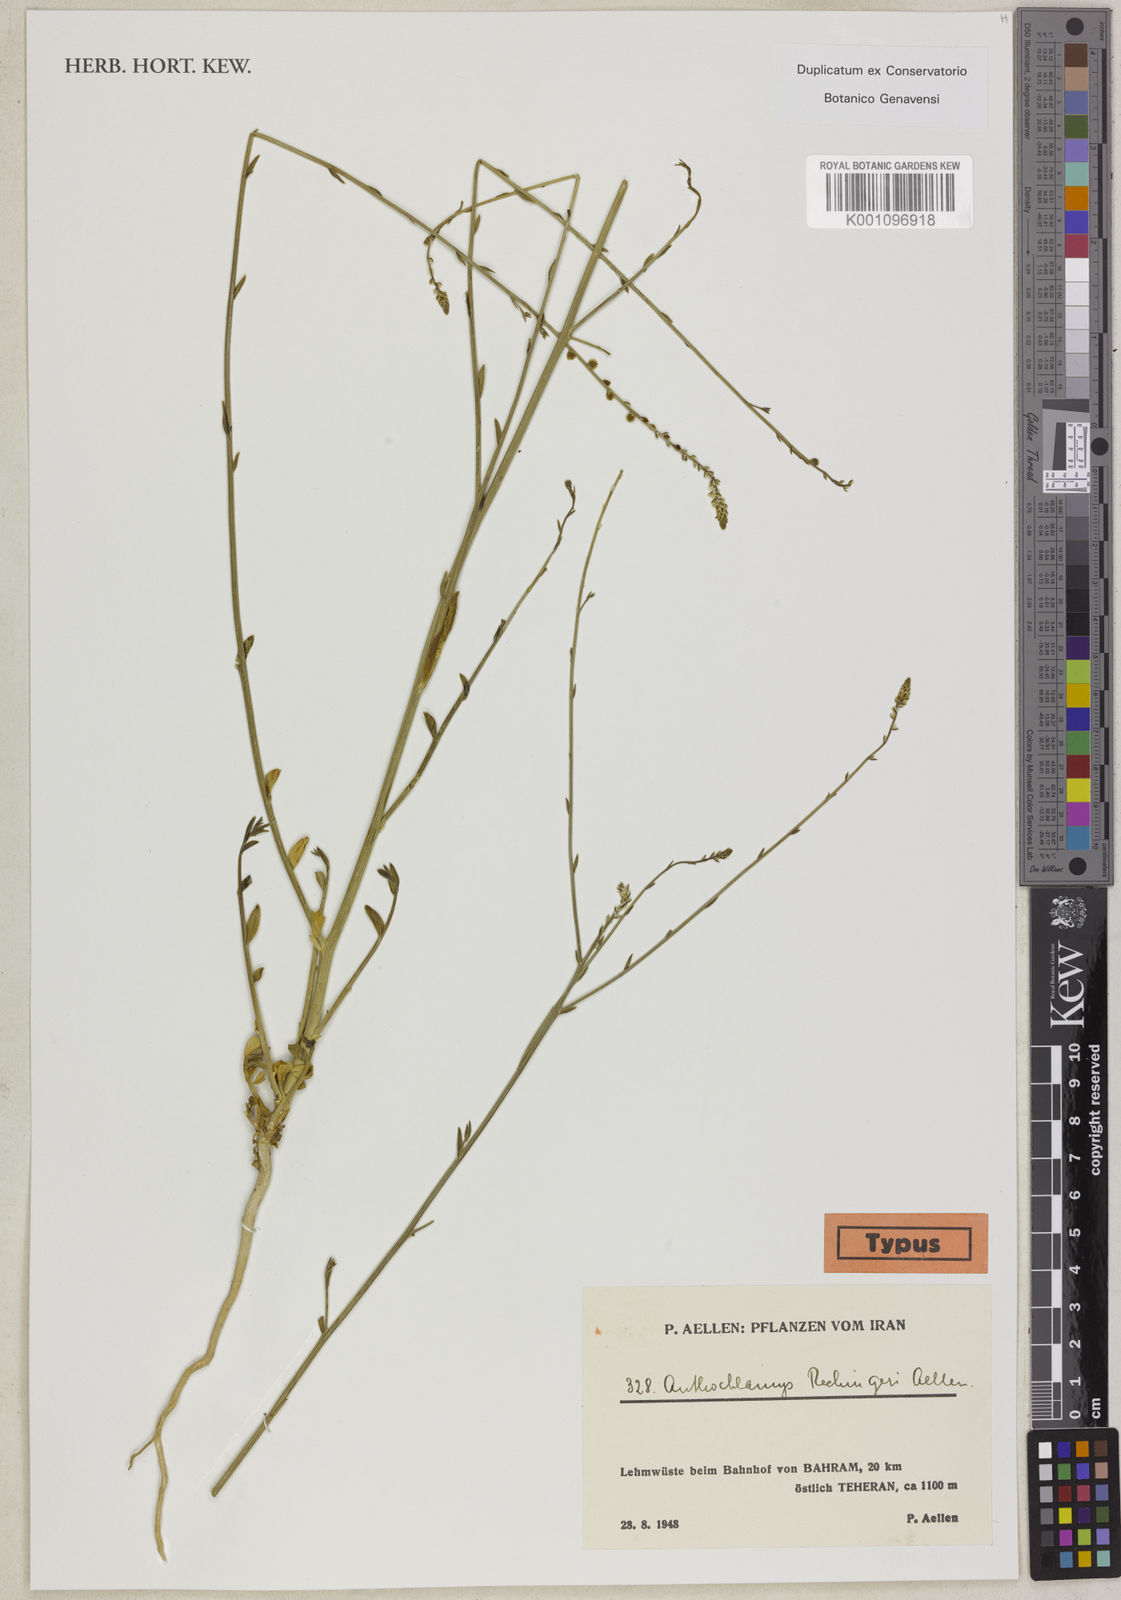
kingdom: Plantae
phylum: Tracheophyta
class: Magnoliopsida
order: Caryophyllales
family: Amaranthaceae
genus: Anthochlamys
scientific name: Anthochlamys polygaloides
